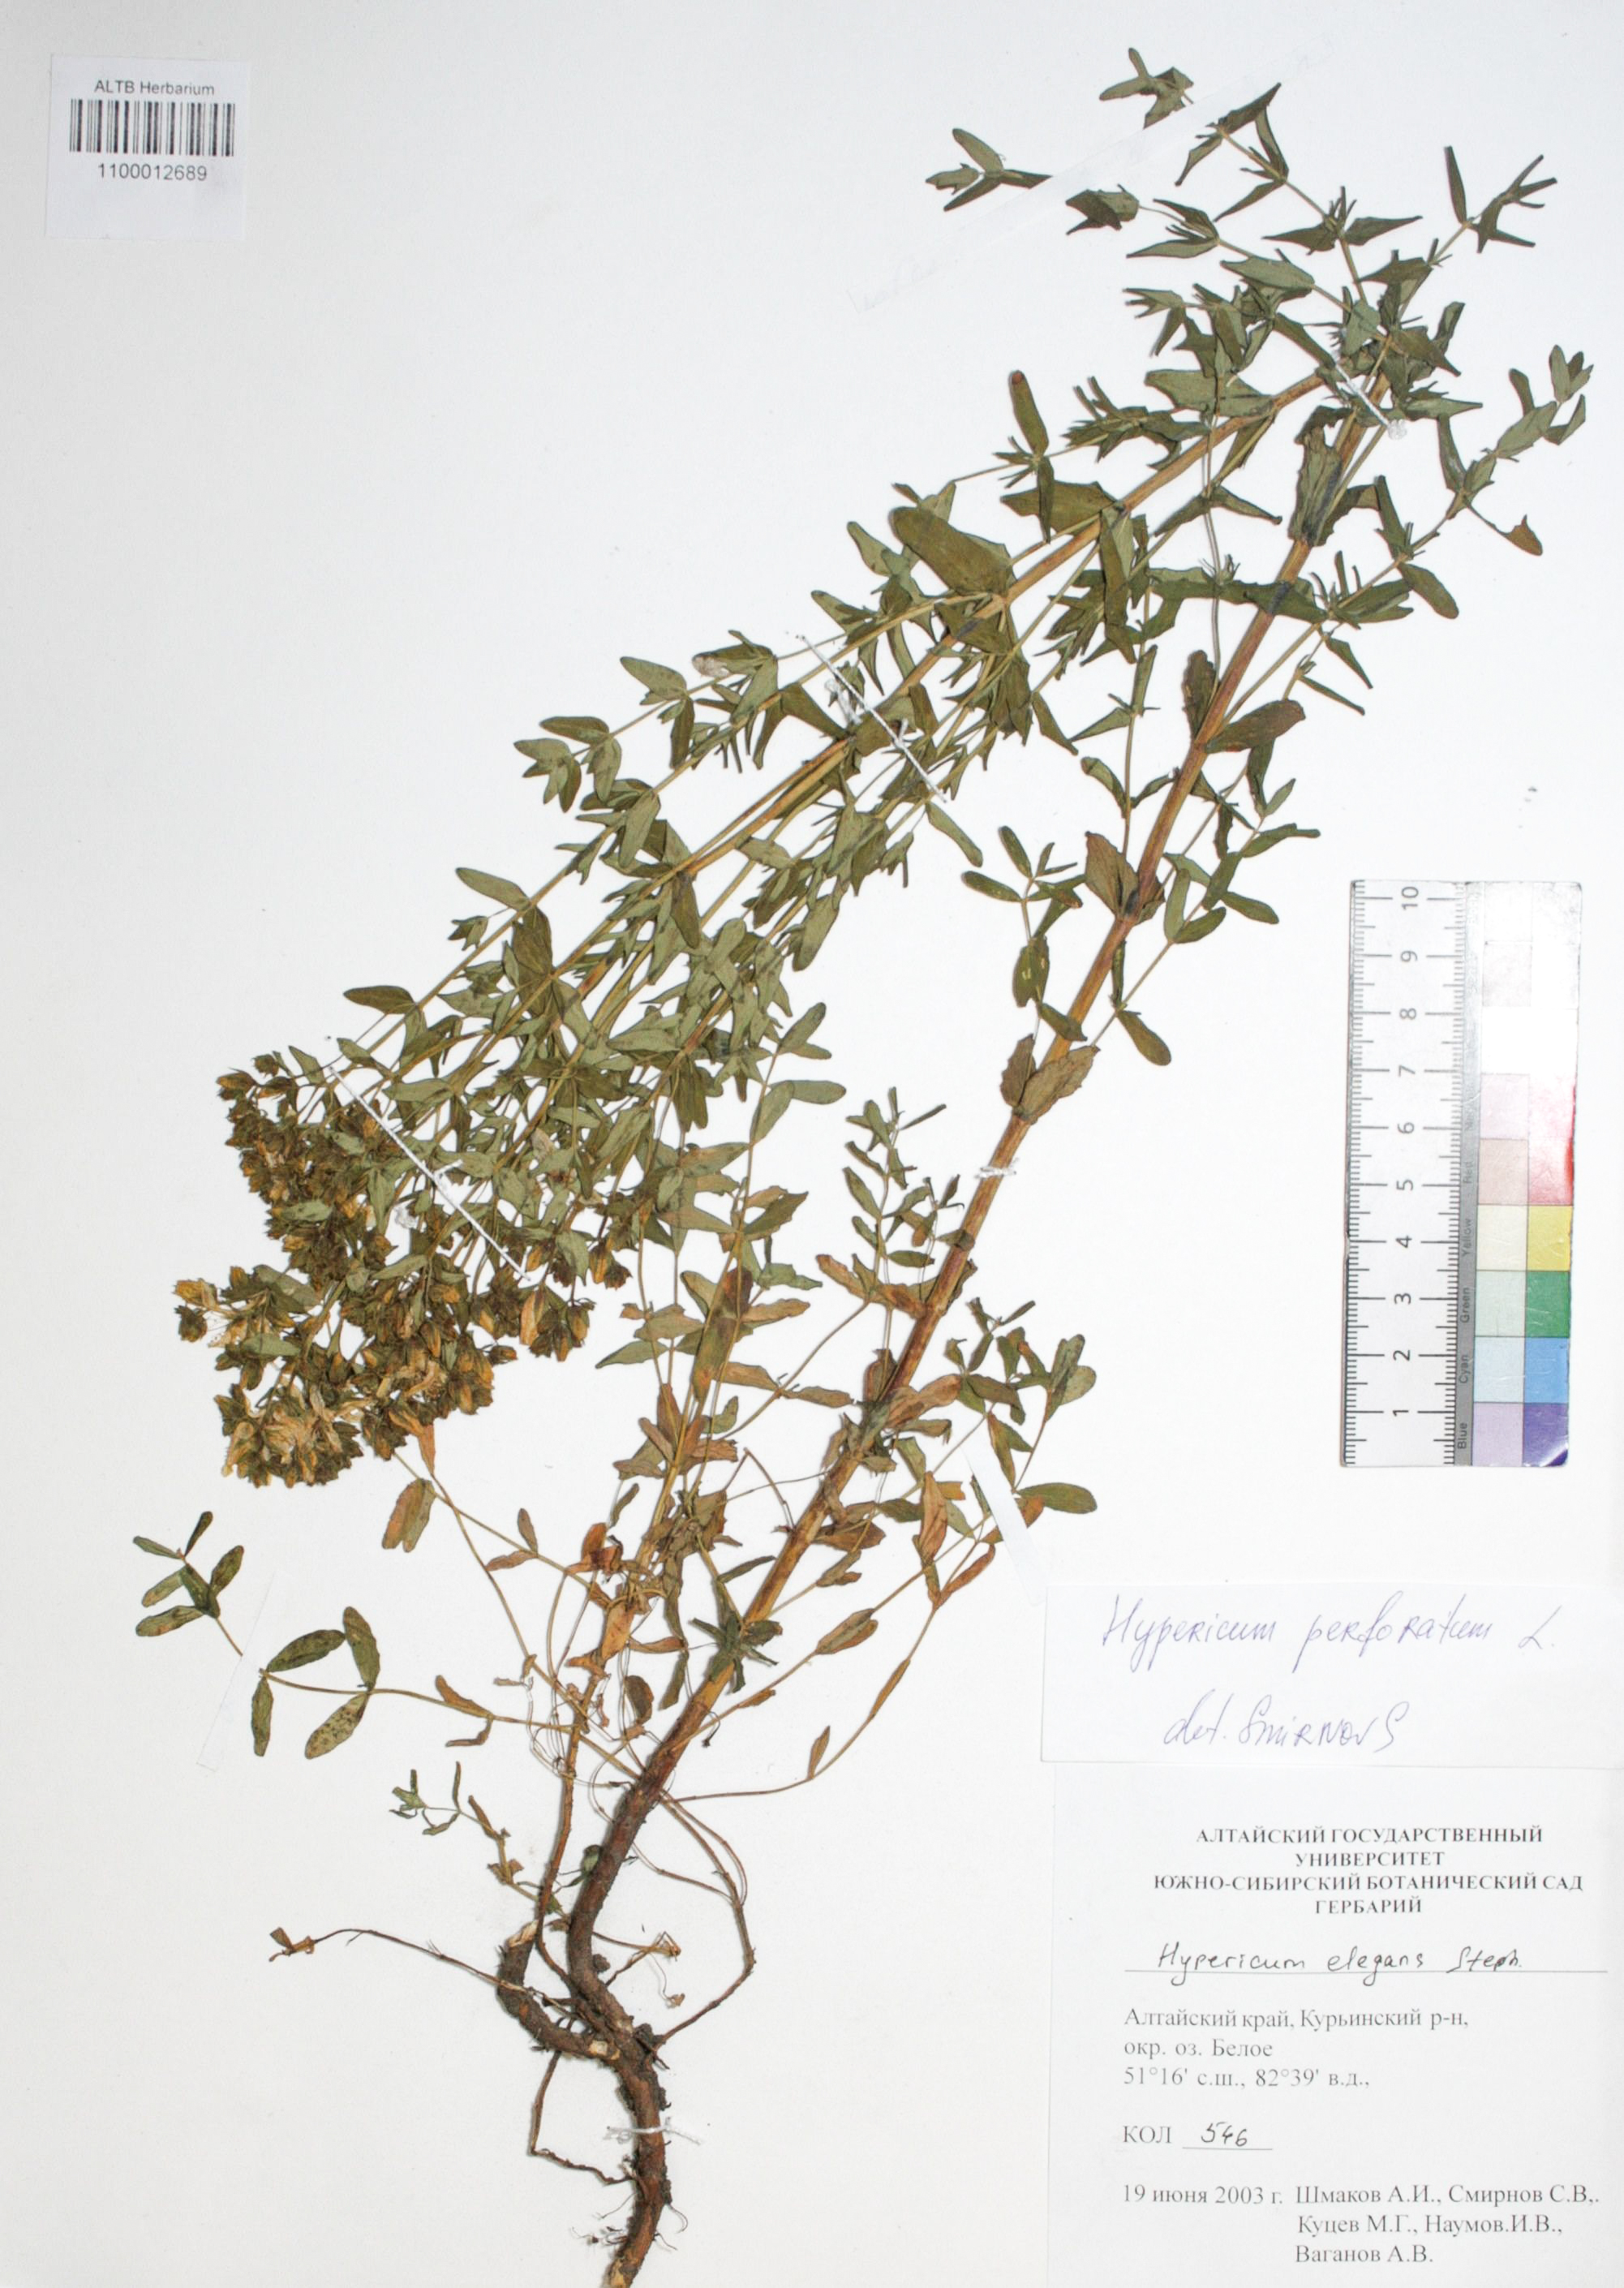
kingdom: Plantae
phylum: Tracheophyta
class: Magnoliopsida
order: Malpighiales
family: Hypericaceae
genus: Hypericum
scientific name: Hypericum perforatum
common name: Common st. johnswort
